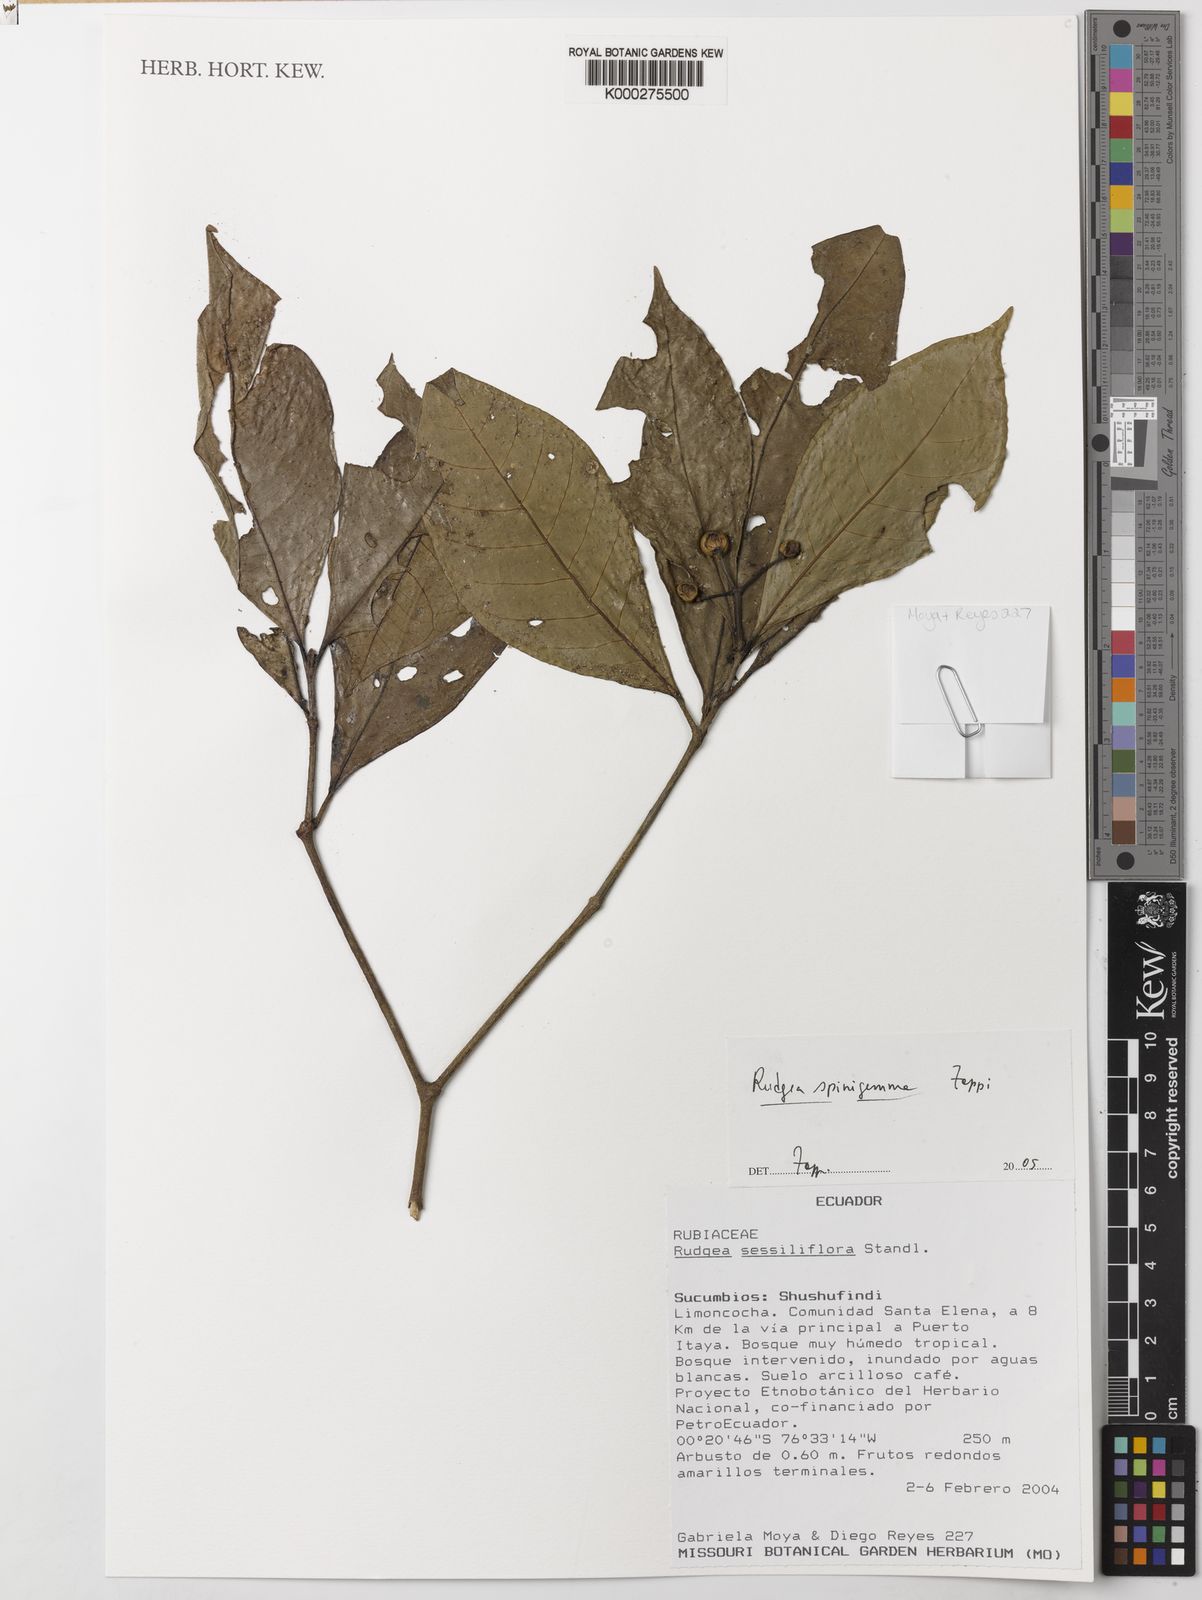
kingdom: Plantae
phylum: Tracheophyta
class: Magnoliopsida
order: Gentianales
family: Rubiaceae
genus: Rudgea
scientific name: Rudgea spinigemma
